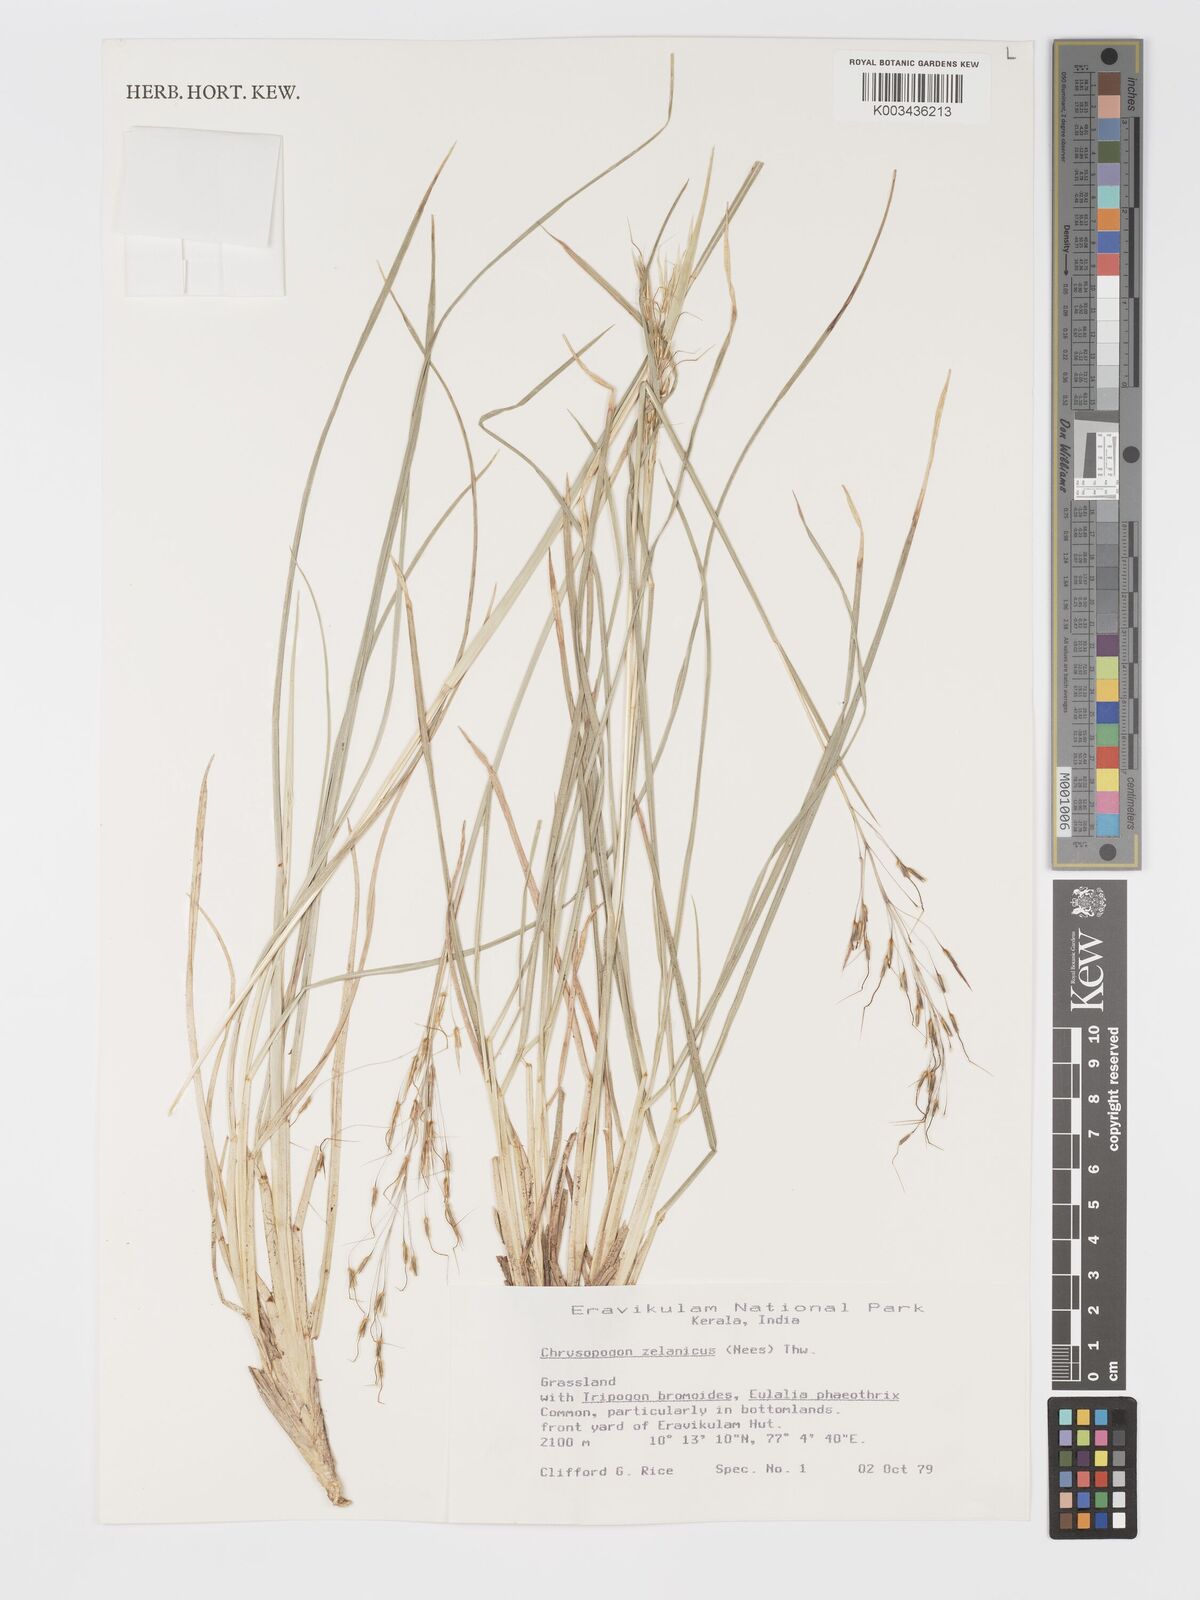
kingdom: Plantae
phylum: Tracheophyta
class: Liliopsida
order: Poales
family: Poaceae
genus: Chrysopogon
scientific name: Chrysopogon nodulibarbis
